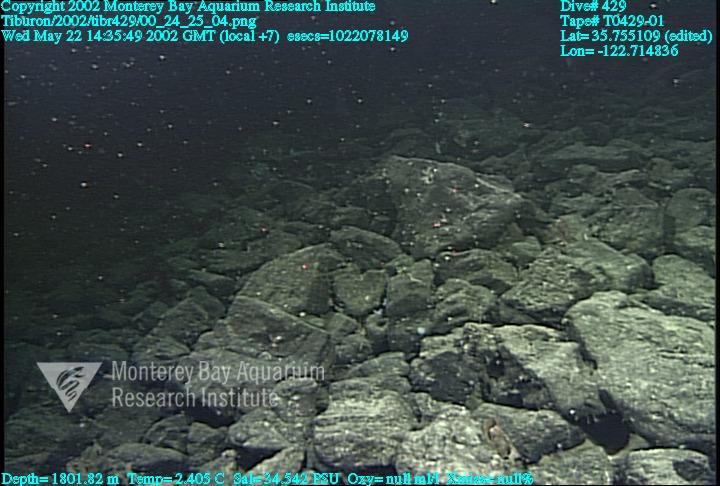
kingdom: Animalia
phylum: Porifera
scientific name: Porifera
